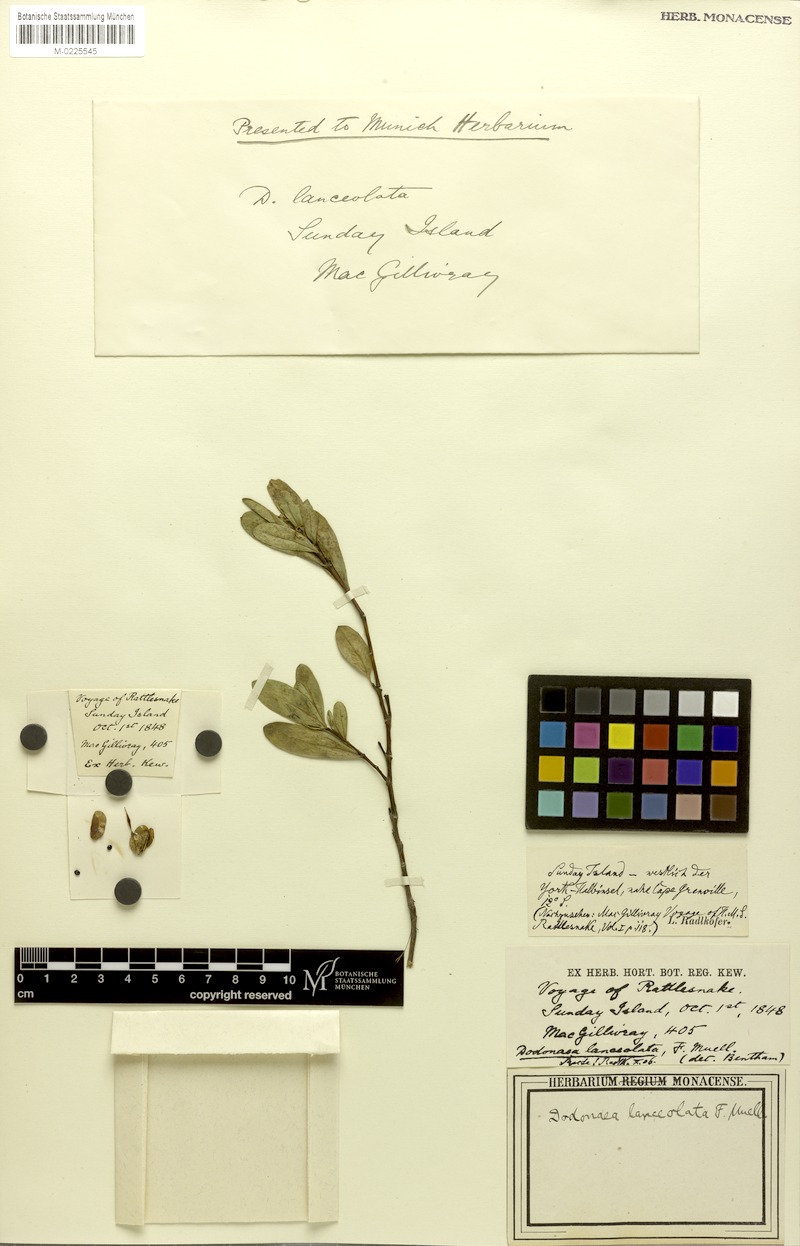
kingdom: Plantae
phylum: Tracheophyta
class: Magnoliopsida
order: Sapindales
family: Sapindaceae
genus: Dodonaea
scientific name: Dodonaea lanceolata
